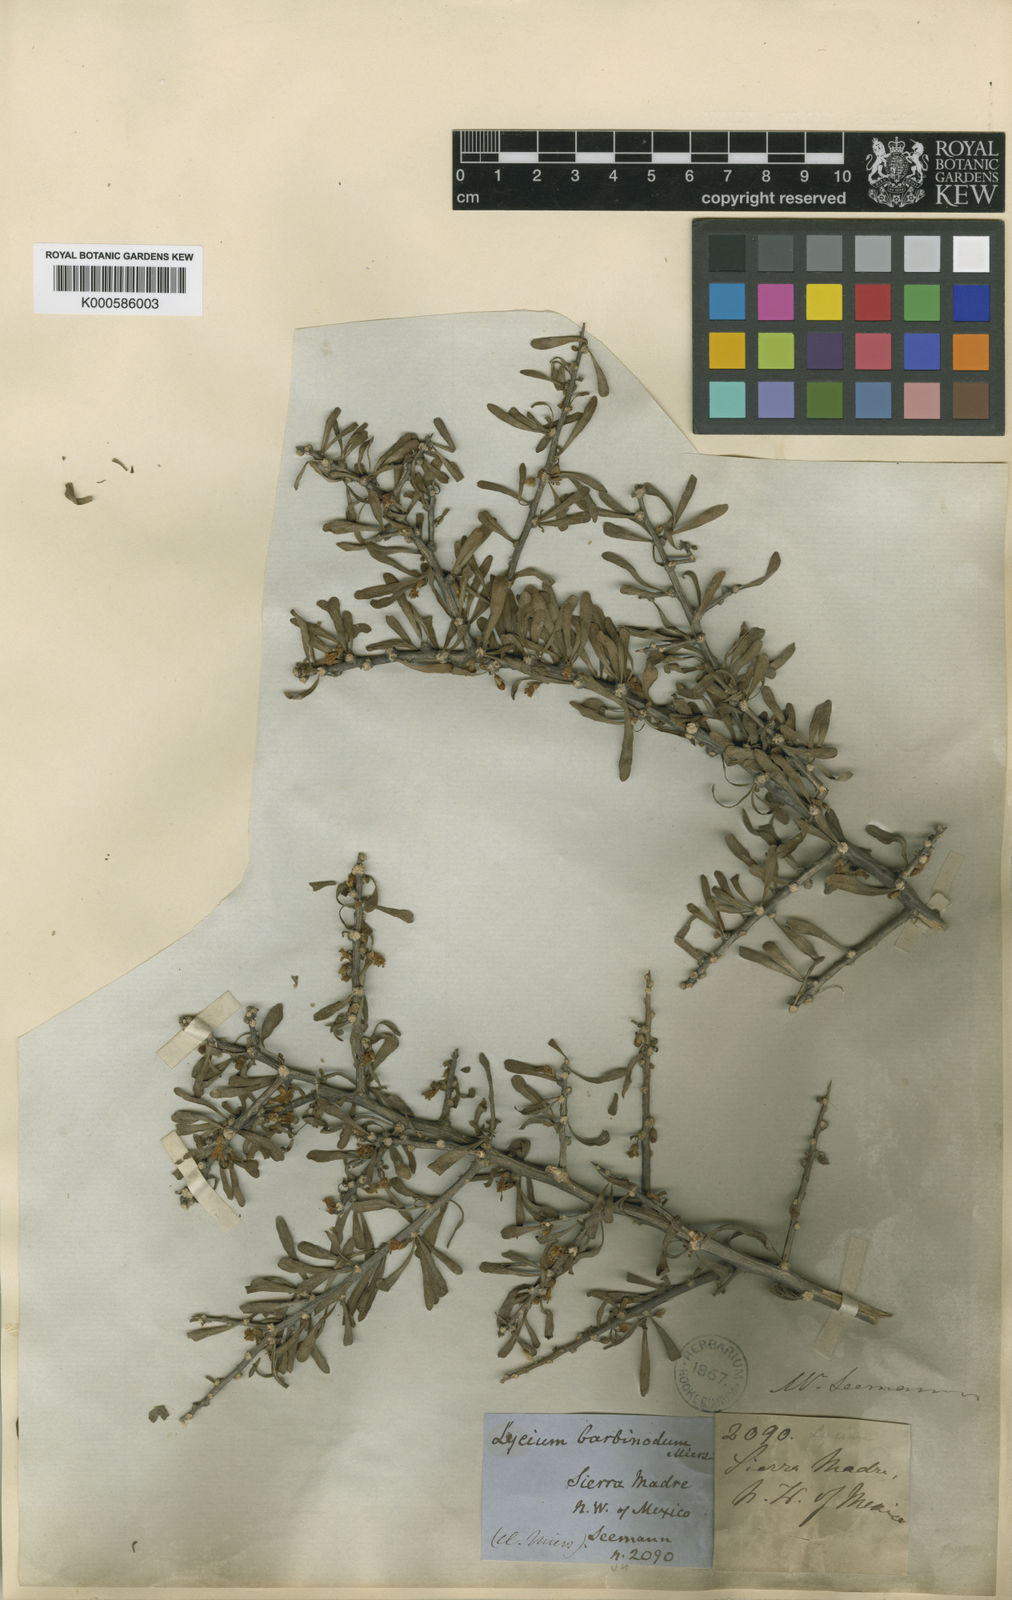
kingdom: Plantae
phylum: Tracheophyta
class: Magnoliopsida
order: Solanales
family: Solanaceae
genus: Lycium
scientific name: Lycium berlandieri
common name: Berlandier wolfberry
